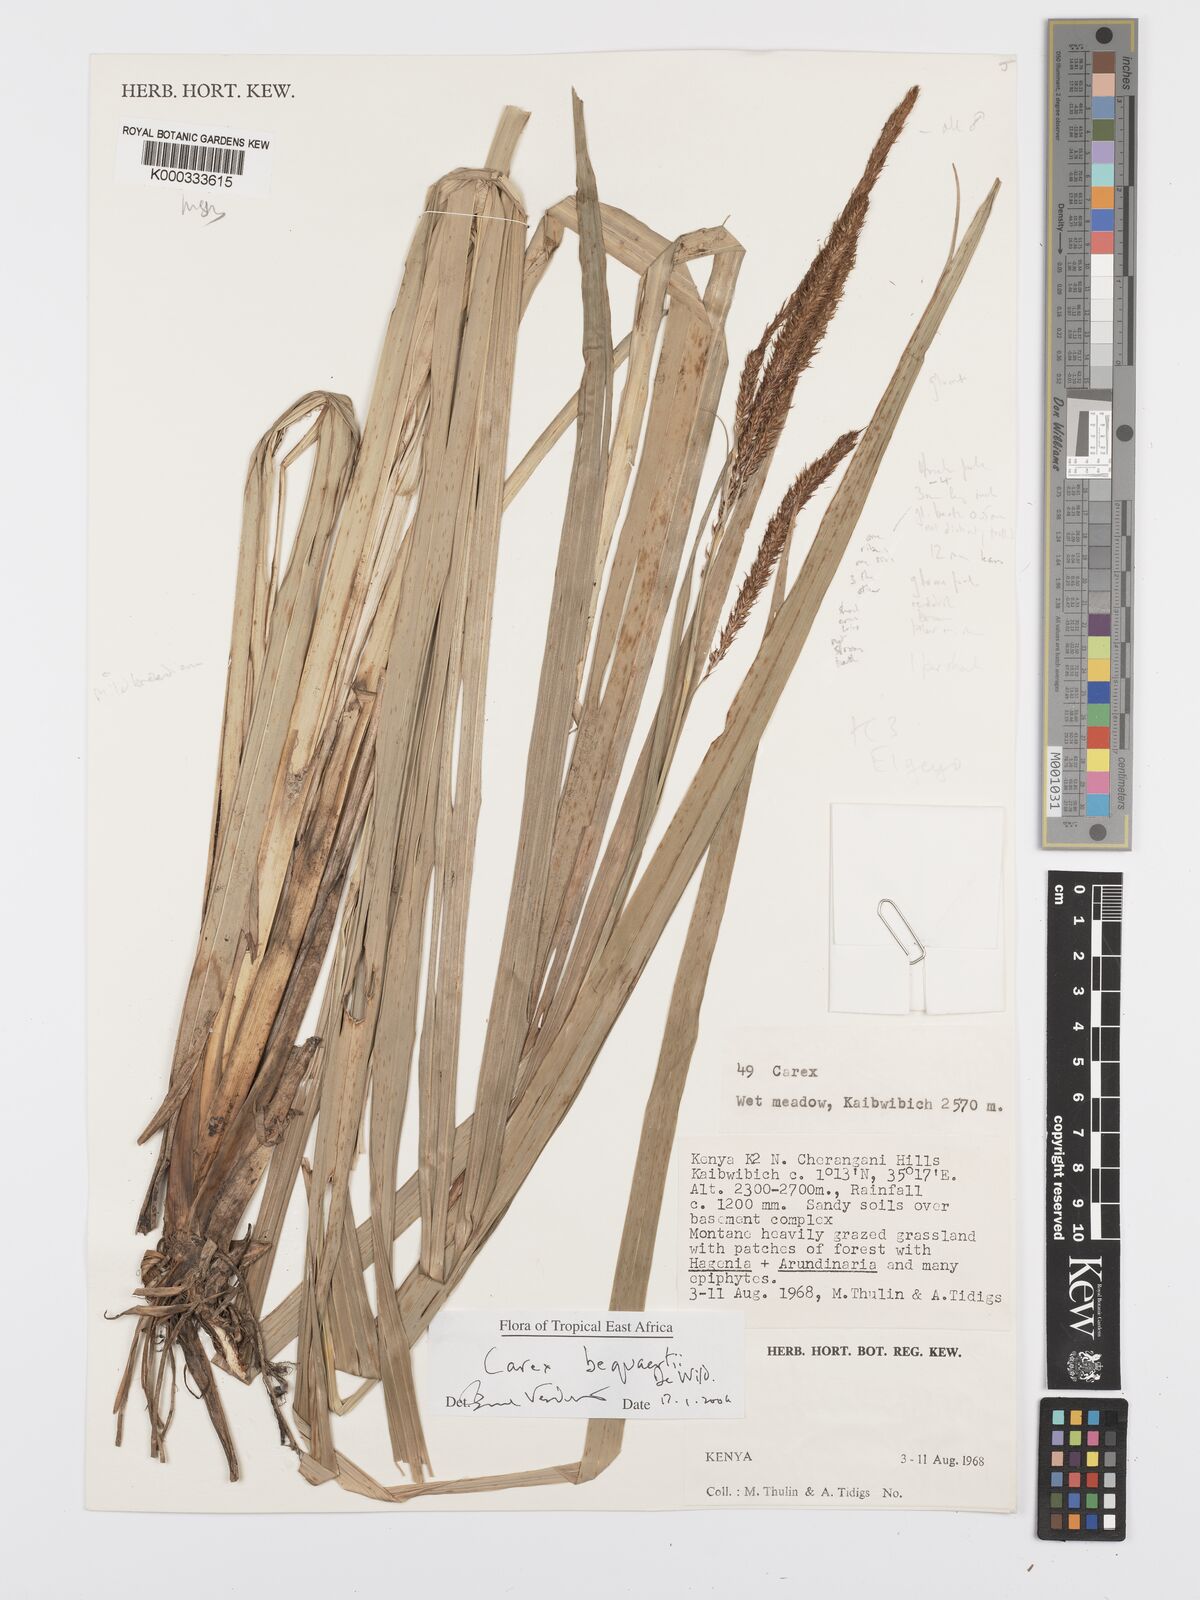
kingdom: Plantae
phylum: Tracheophyta
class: Liliopsida
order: Poales
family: Cyperaceae
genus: Carex
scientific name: Carex bequaertii
